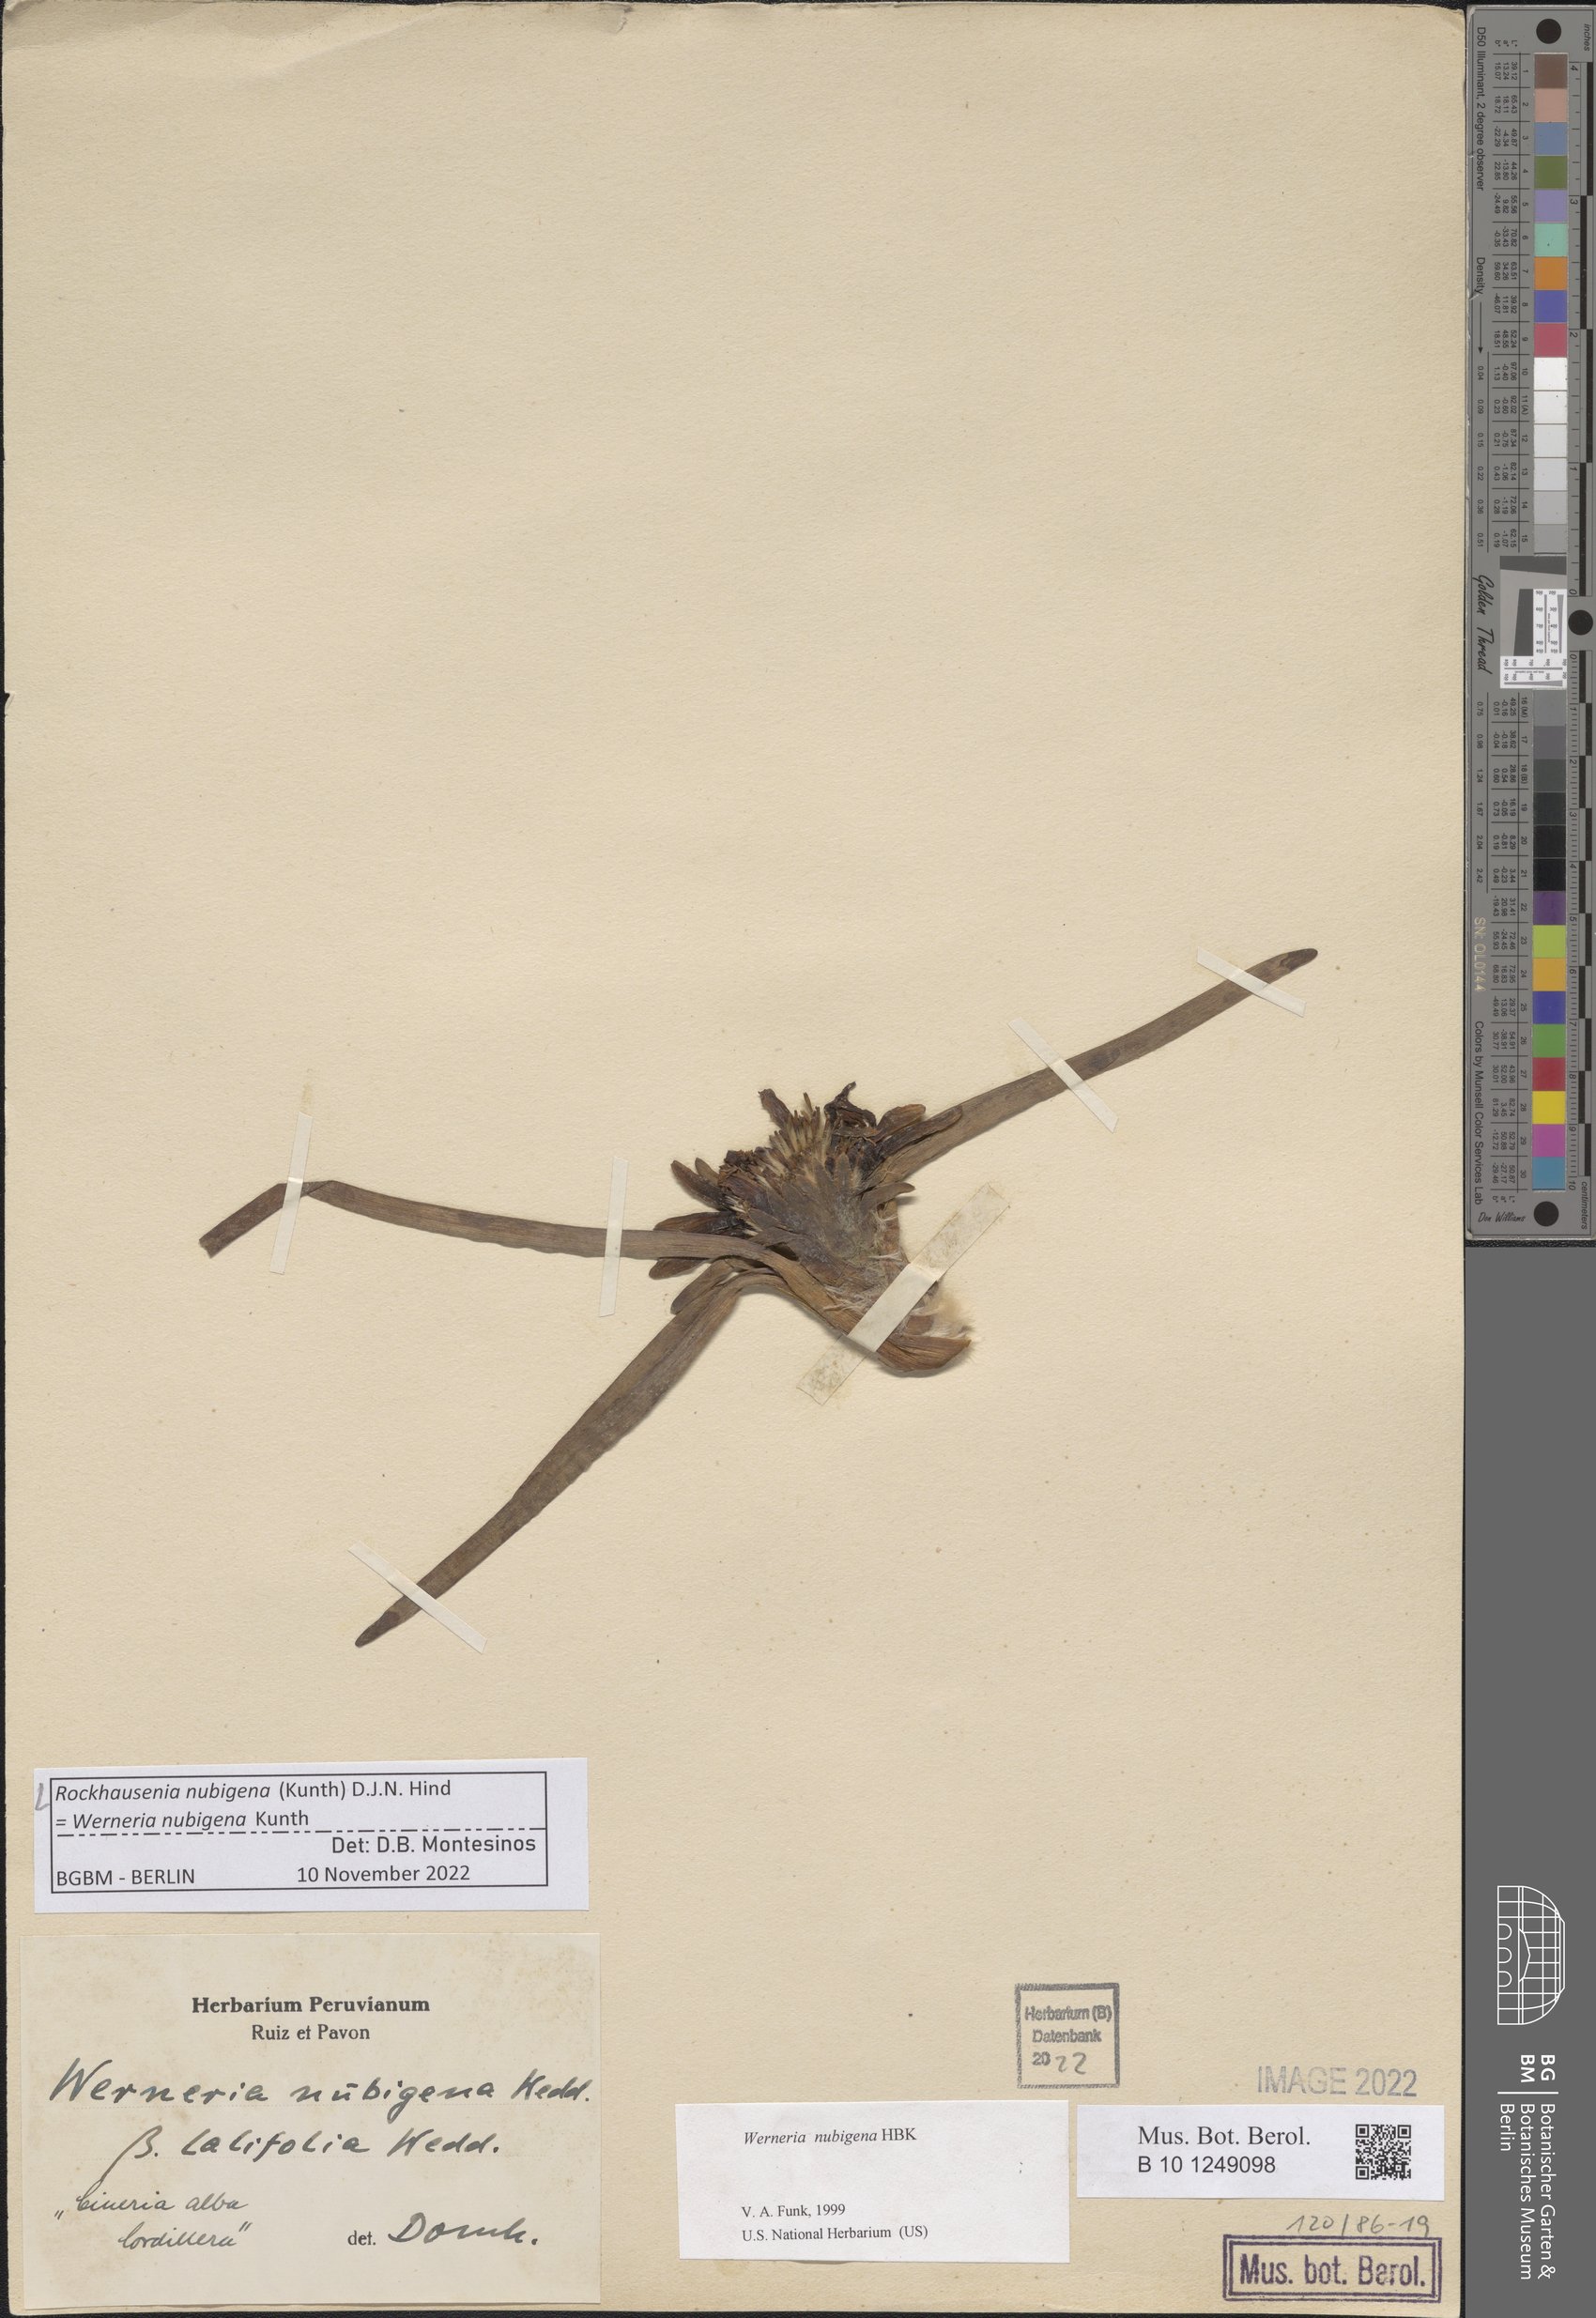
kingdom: Plantae
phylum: Tracheophyta
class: Magnoliopsida
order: Asterales
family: Asteraceae
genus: Rockhausenia
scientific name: Rockhausenia nubigena
